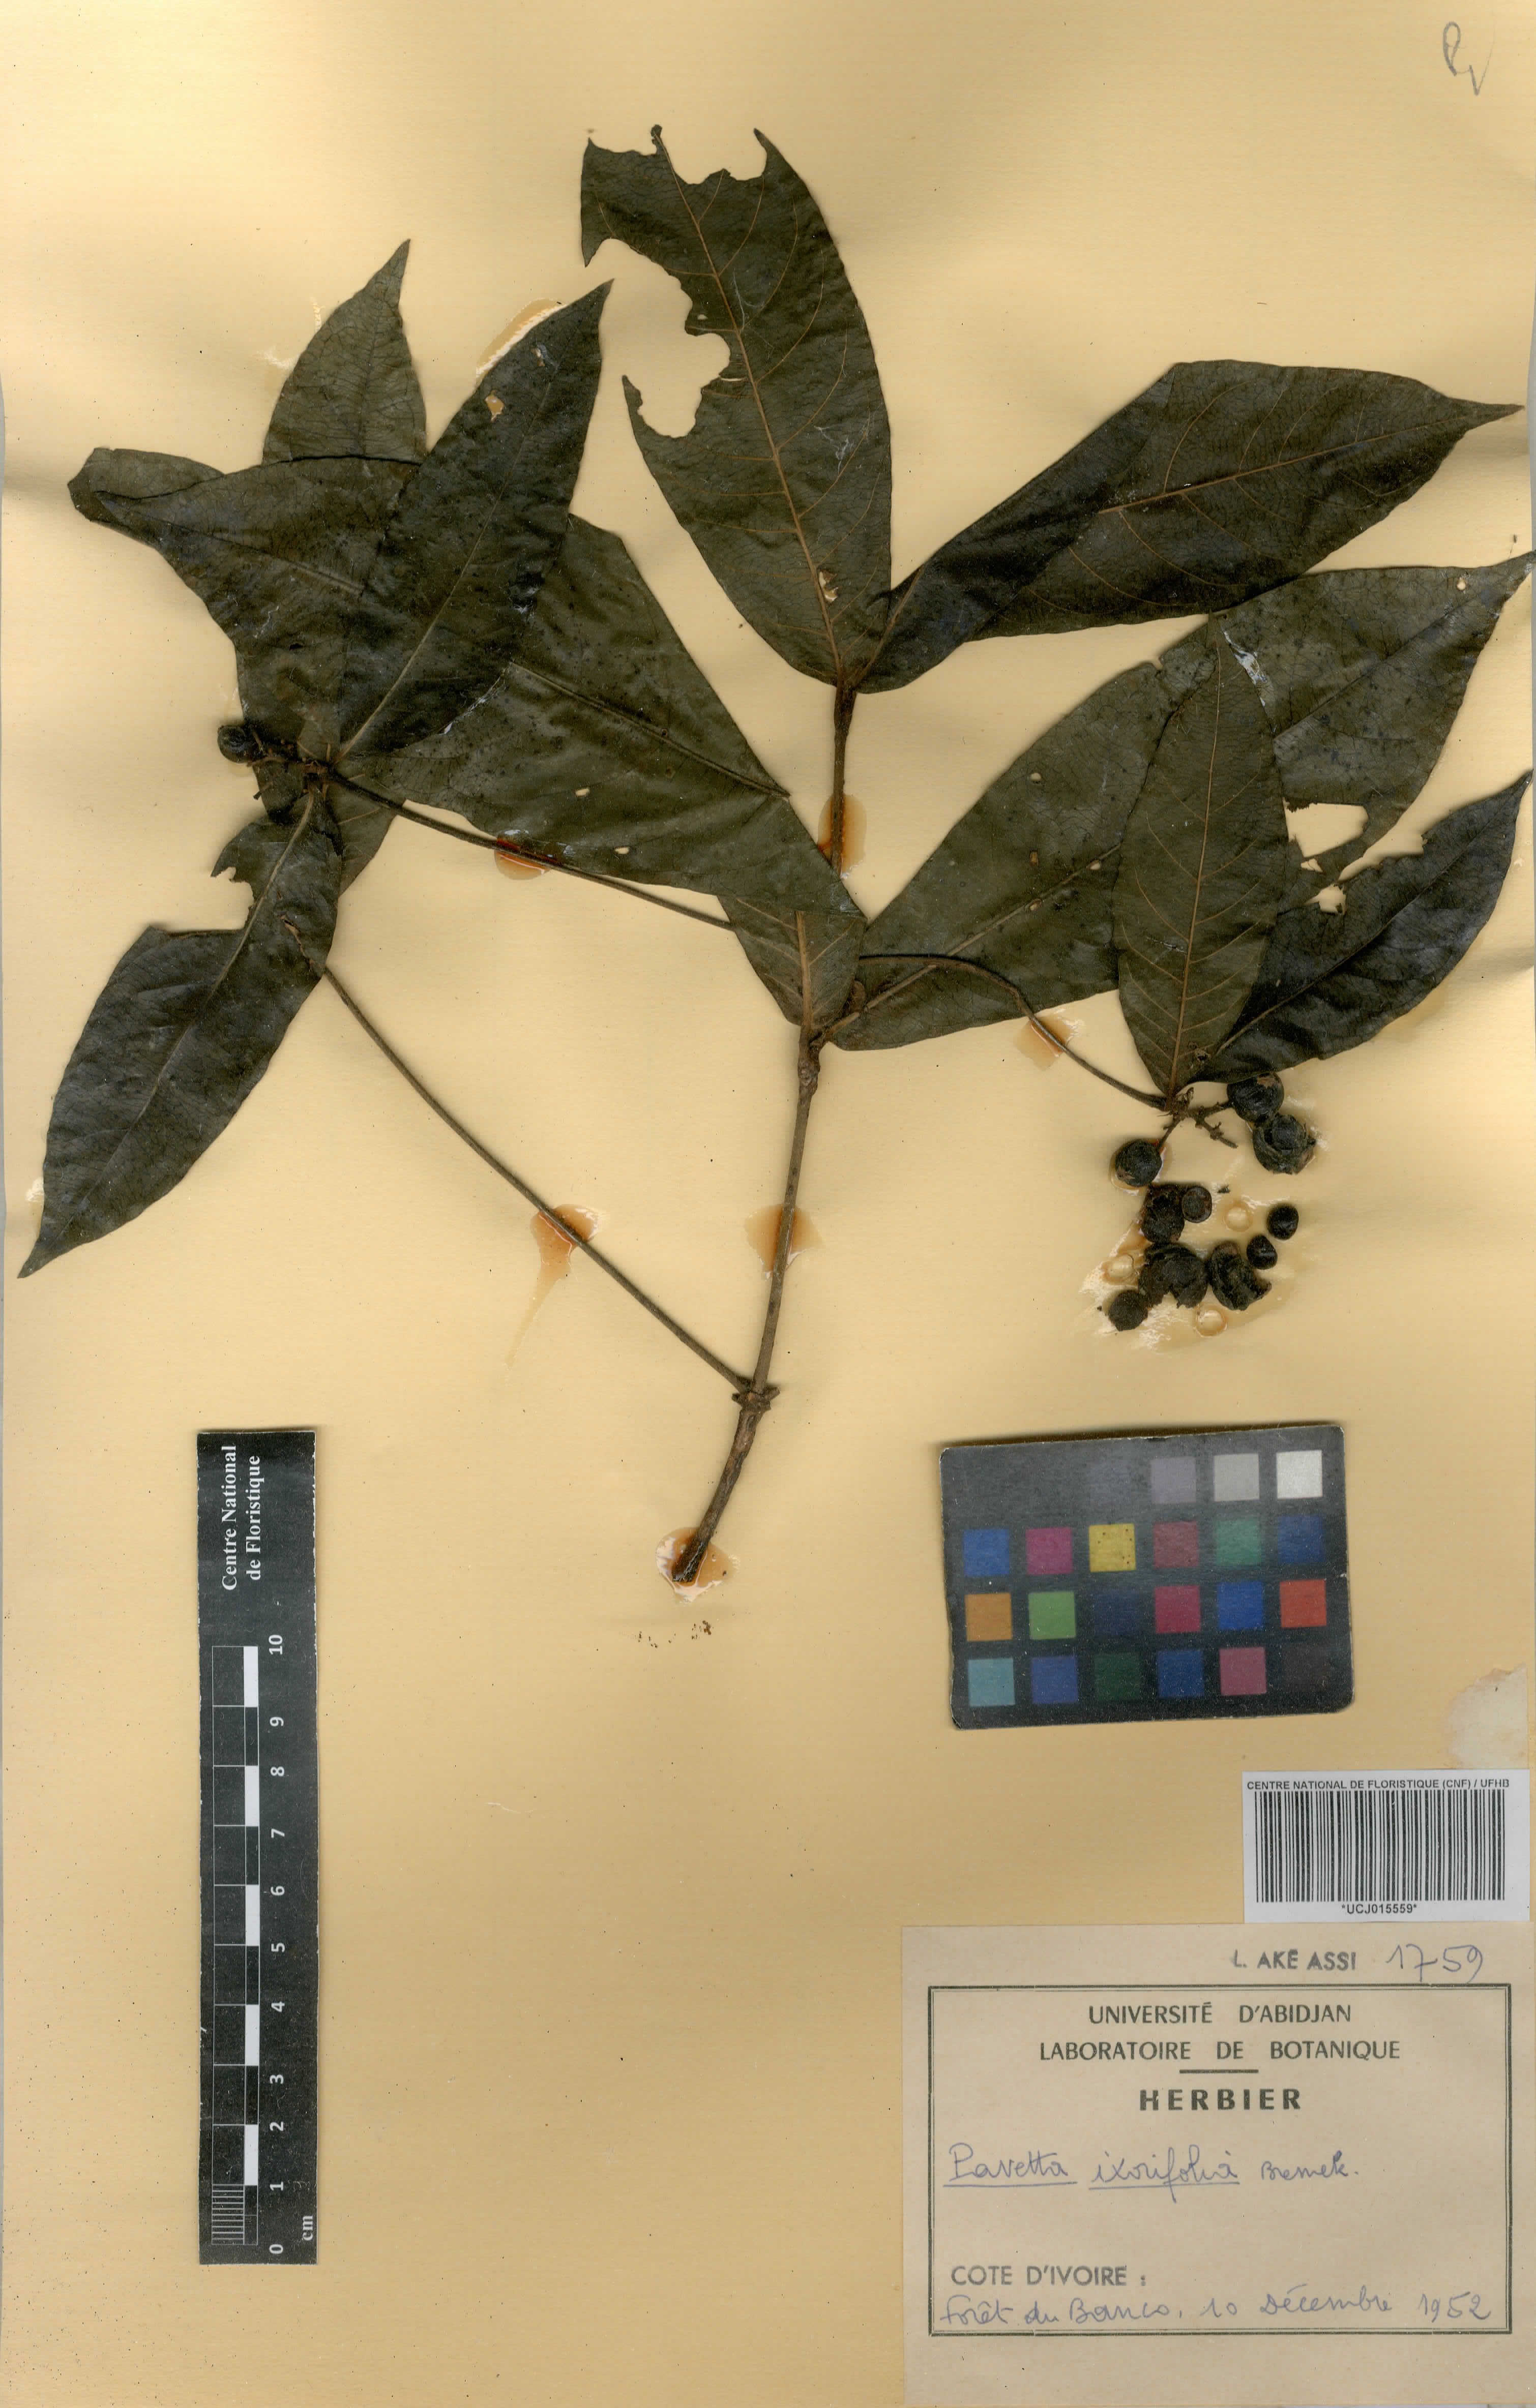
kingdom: Plantae
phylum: Tracheophyta
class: Magnoliopsida
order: Gentianales
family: Rubiaceae
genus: Pavetta
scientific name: Pavetta ixorifolia
